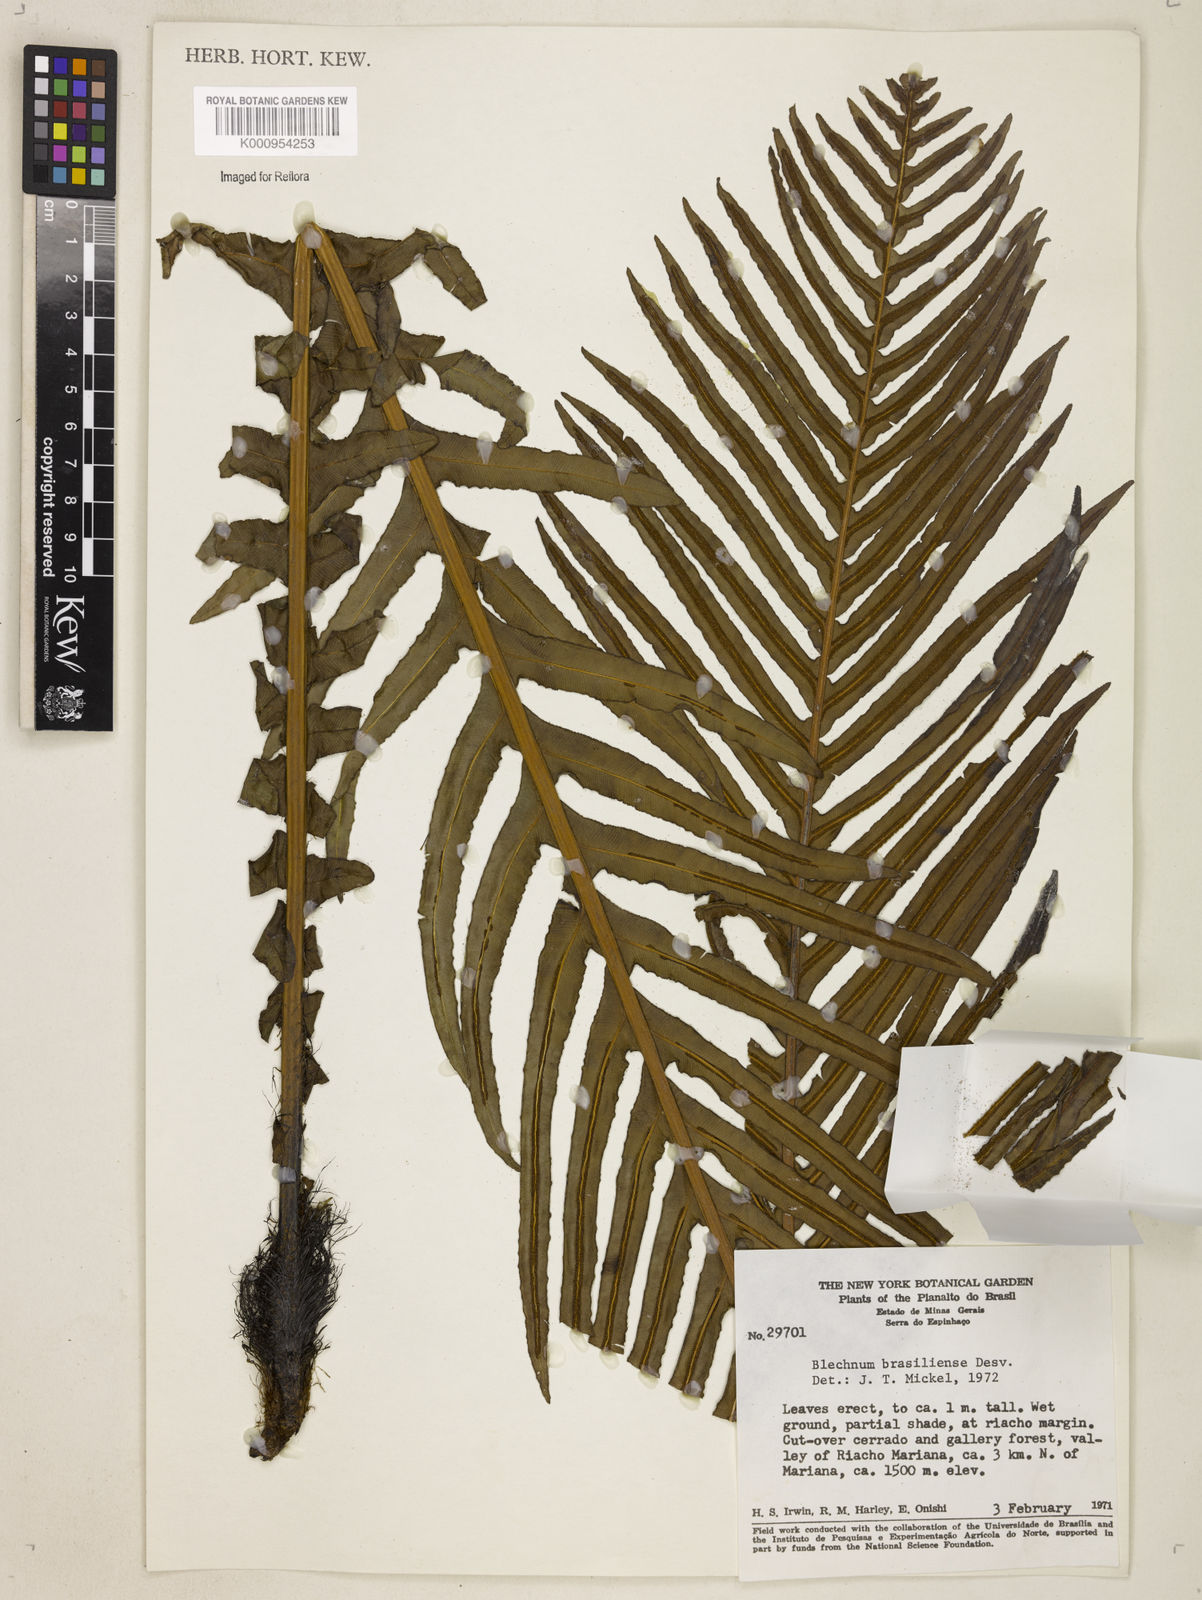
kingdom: Plantae
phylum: Tracheophyta
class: Polypodiopsida
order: Polypodiales
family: Blechnaceae
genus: Neoblechnum
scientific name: Neoblechnum brasiliense
